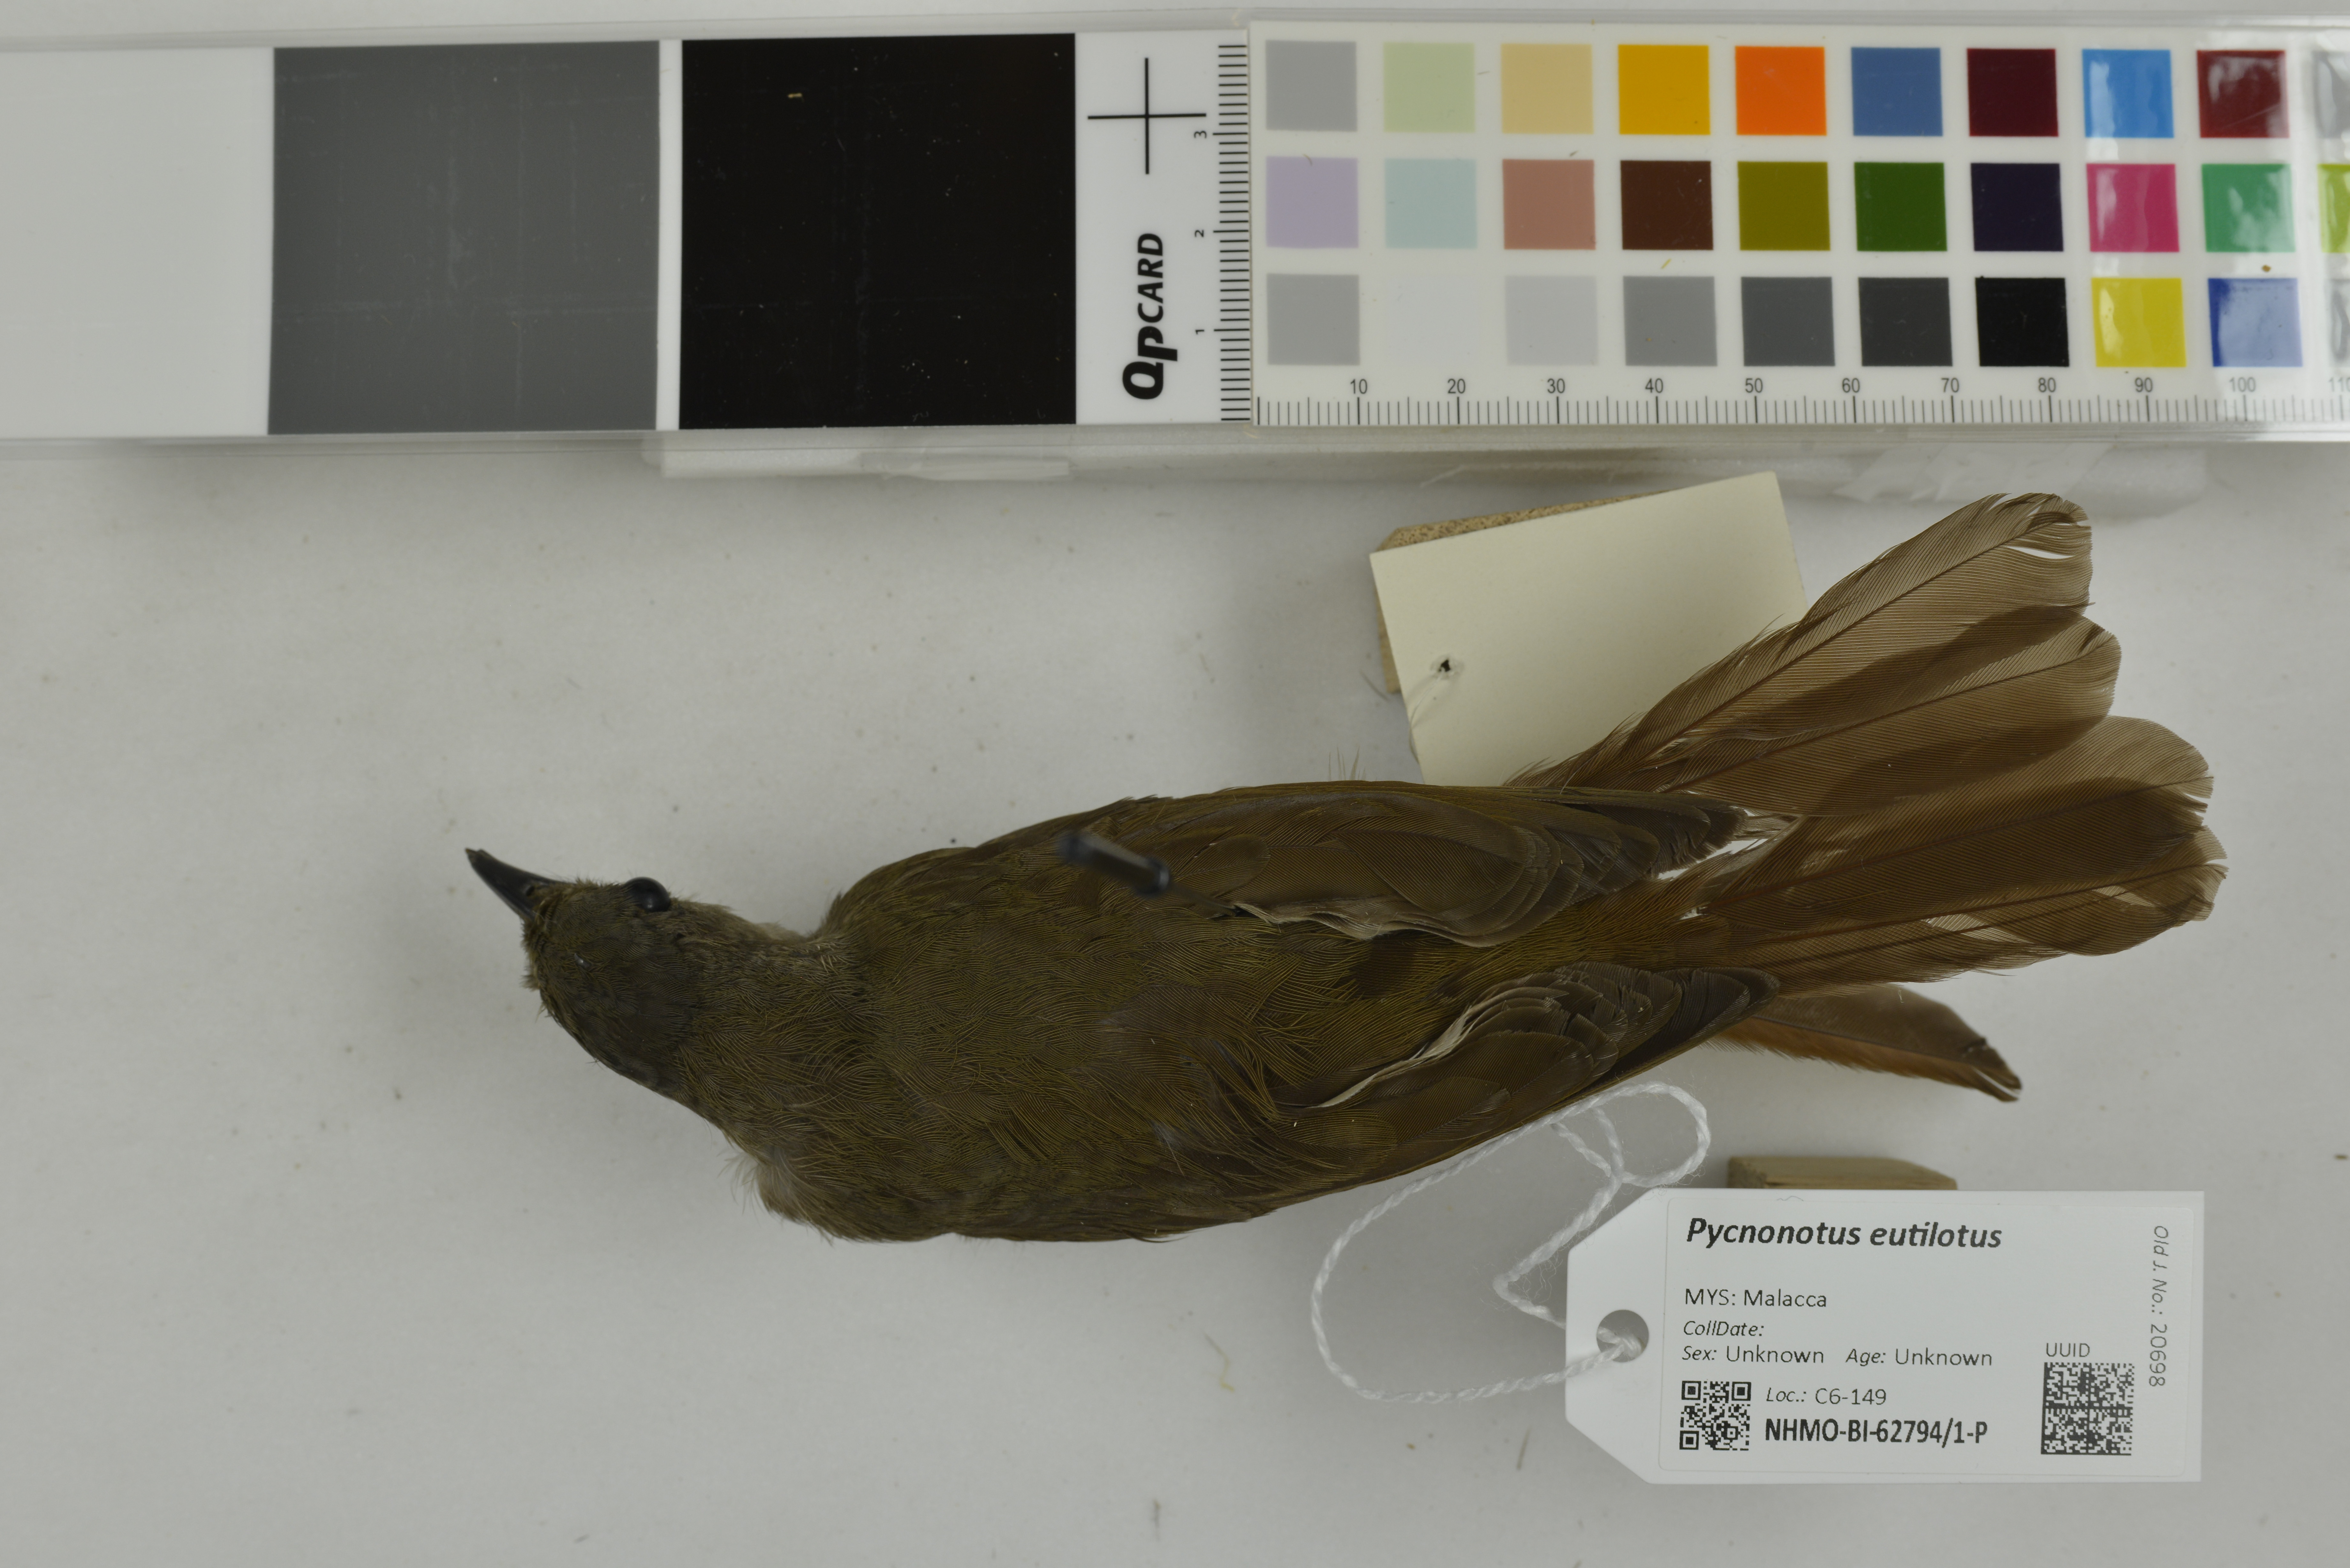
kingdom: Animalia
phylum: Chordata
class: Aves
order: Passeriformes
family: Pycnonotidae
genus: Pycnonotus
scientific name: Pycnonotus eutilotus
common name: Puff-backed bulbul
